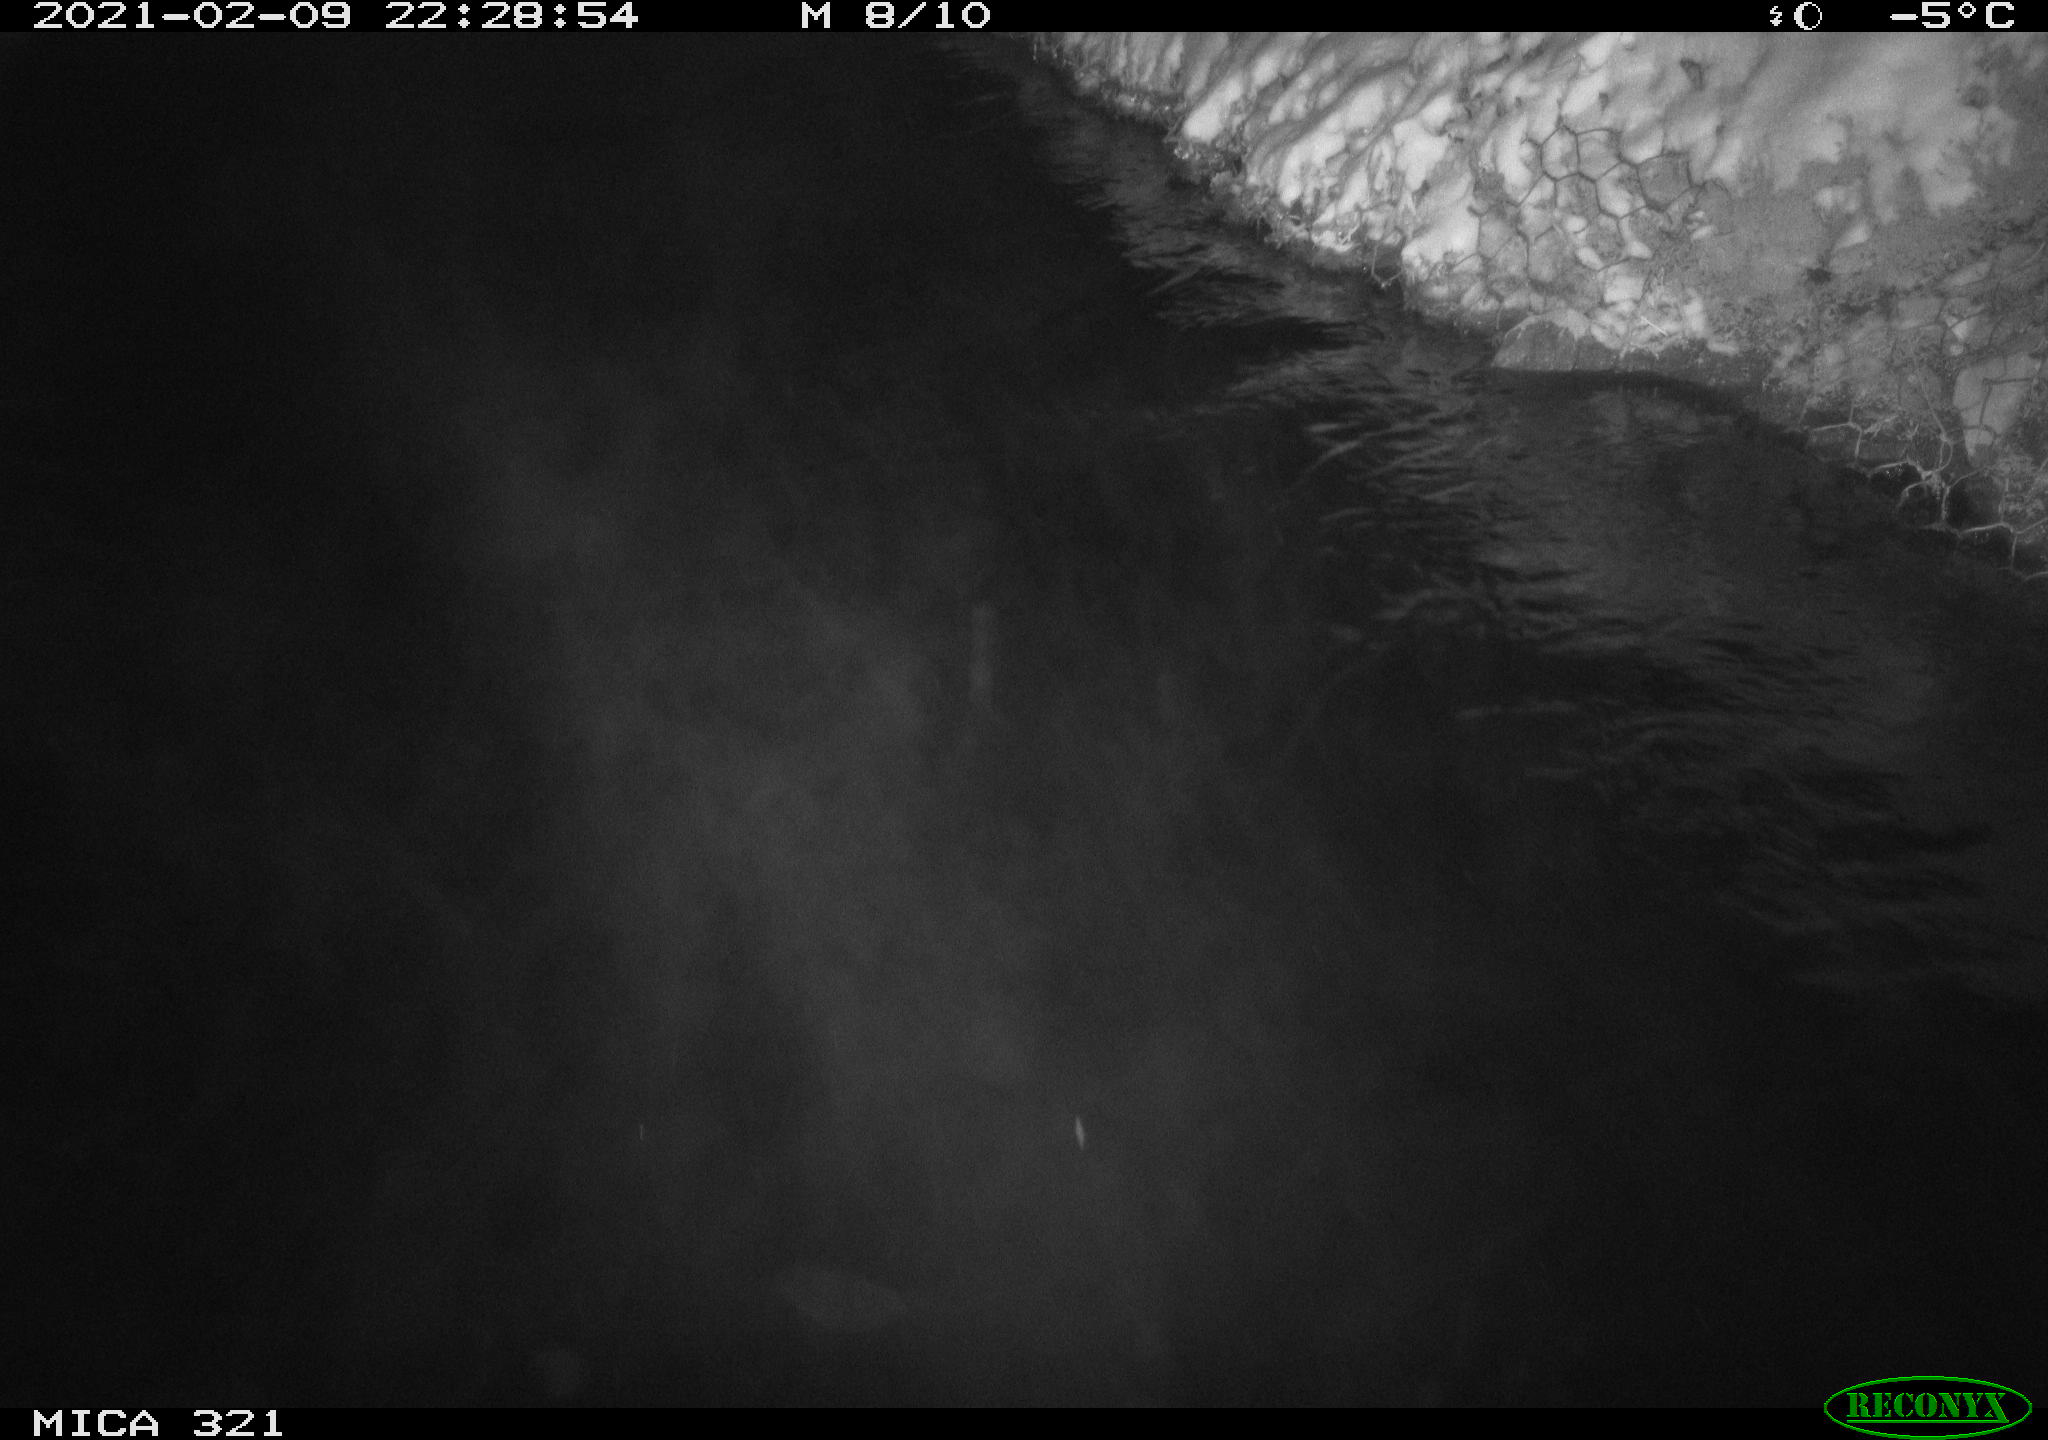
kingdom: Animalia
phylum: Chordata
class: Aves
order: Anseriformes
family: Anatidae
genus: Anas
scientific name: Anas platyrhynchos
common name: Mallard
